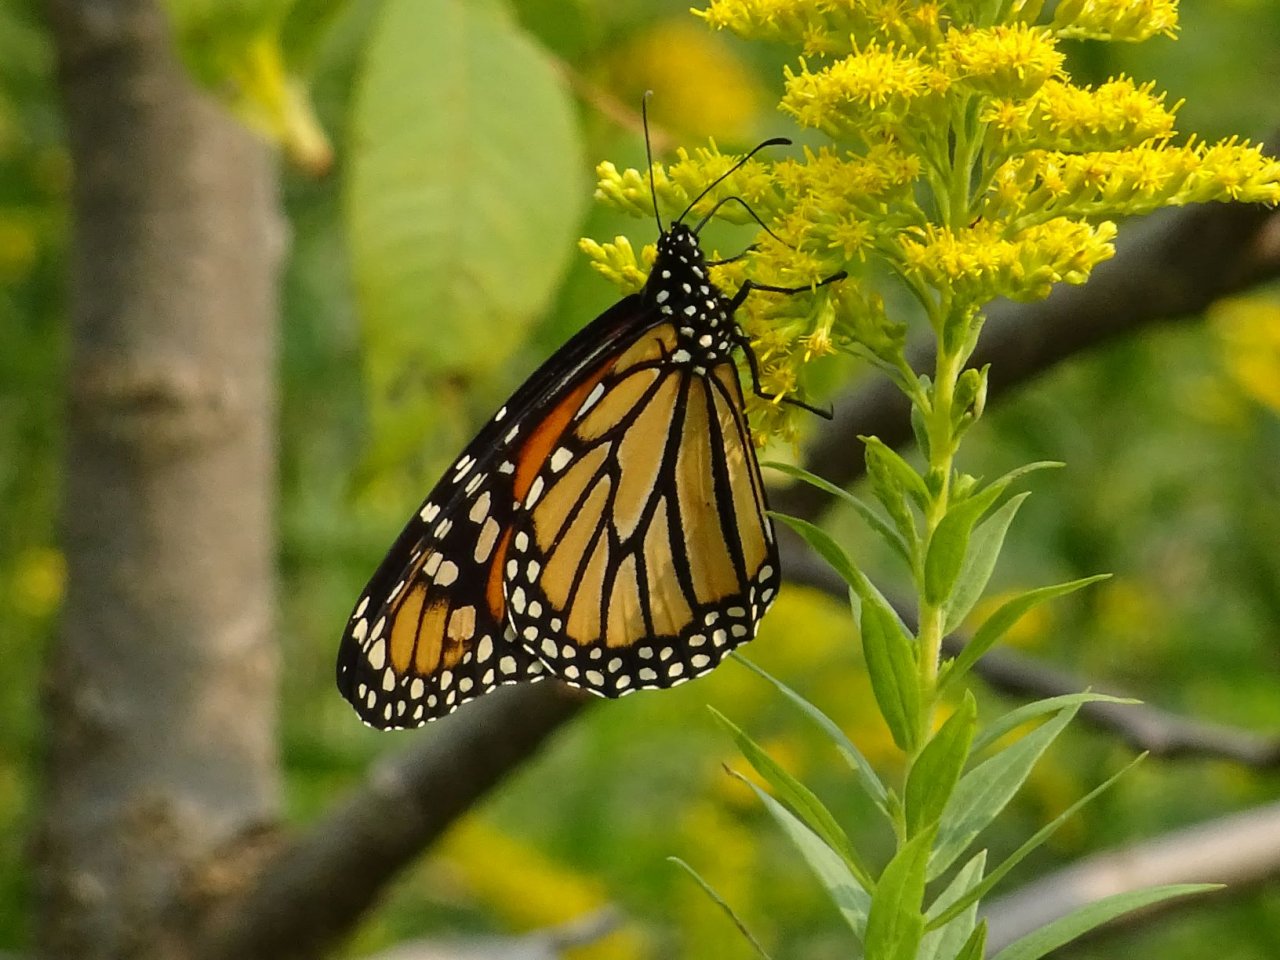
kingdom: Animalia
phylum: Arthropoda
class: Insecta
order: Lepidoptera
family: Nymphalidae
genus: Danaus
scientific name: Danaus plexippus
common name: Monarch
